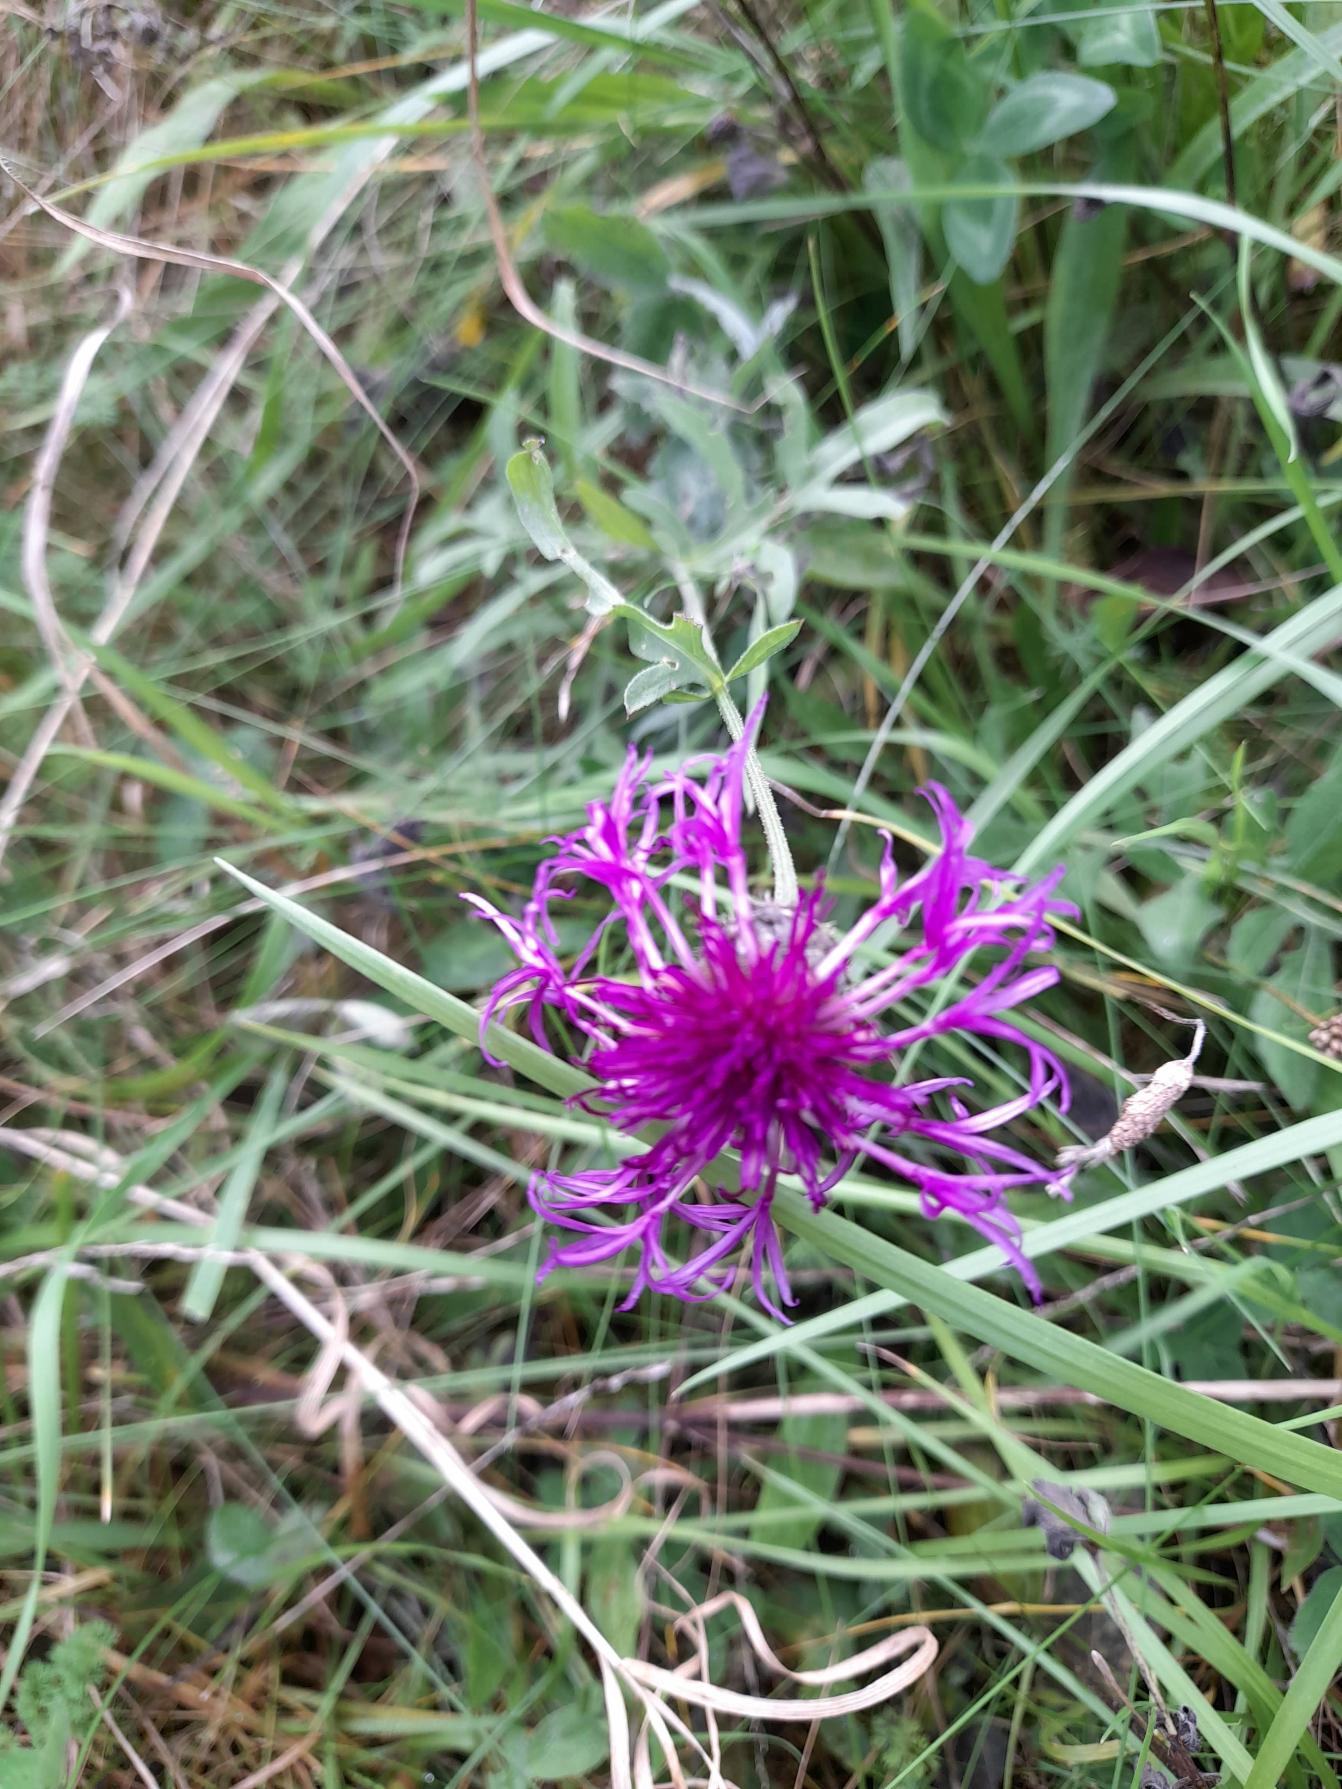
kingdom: Plantae
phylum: Tracheophyta
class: Magnoliopsida
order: Asterales
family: Asteraceae
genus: Centaurea
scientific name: Centaurea scabiosa
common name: Stor knopurt
